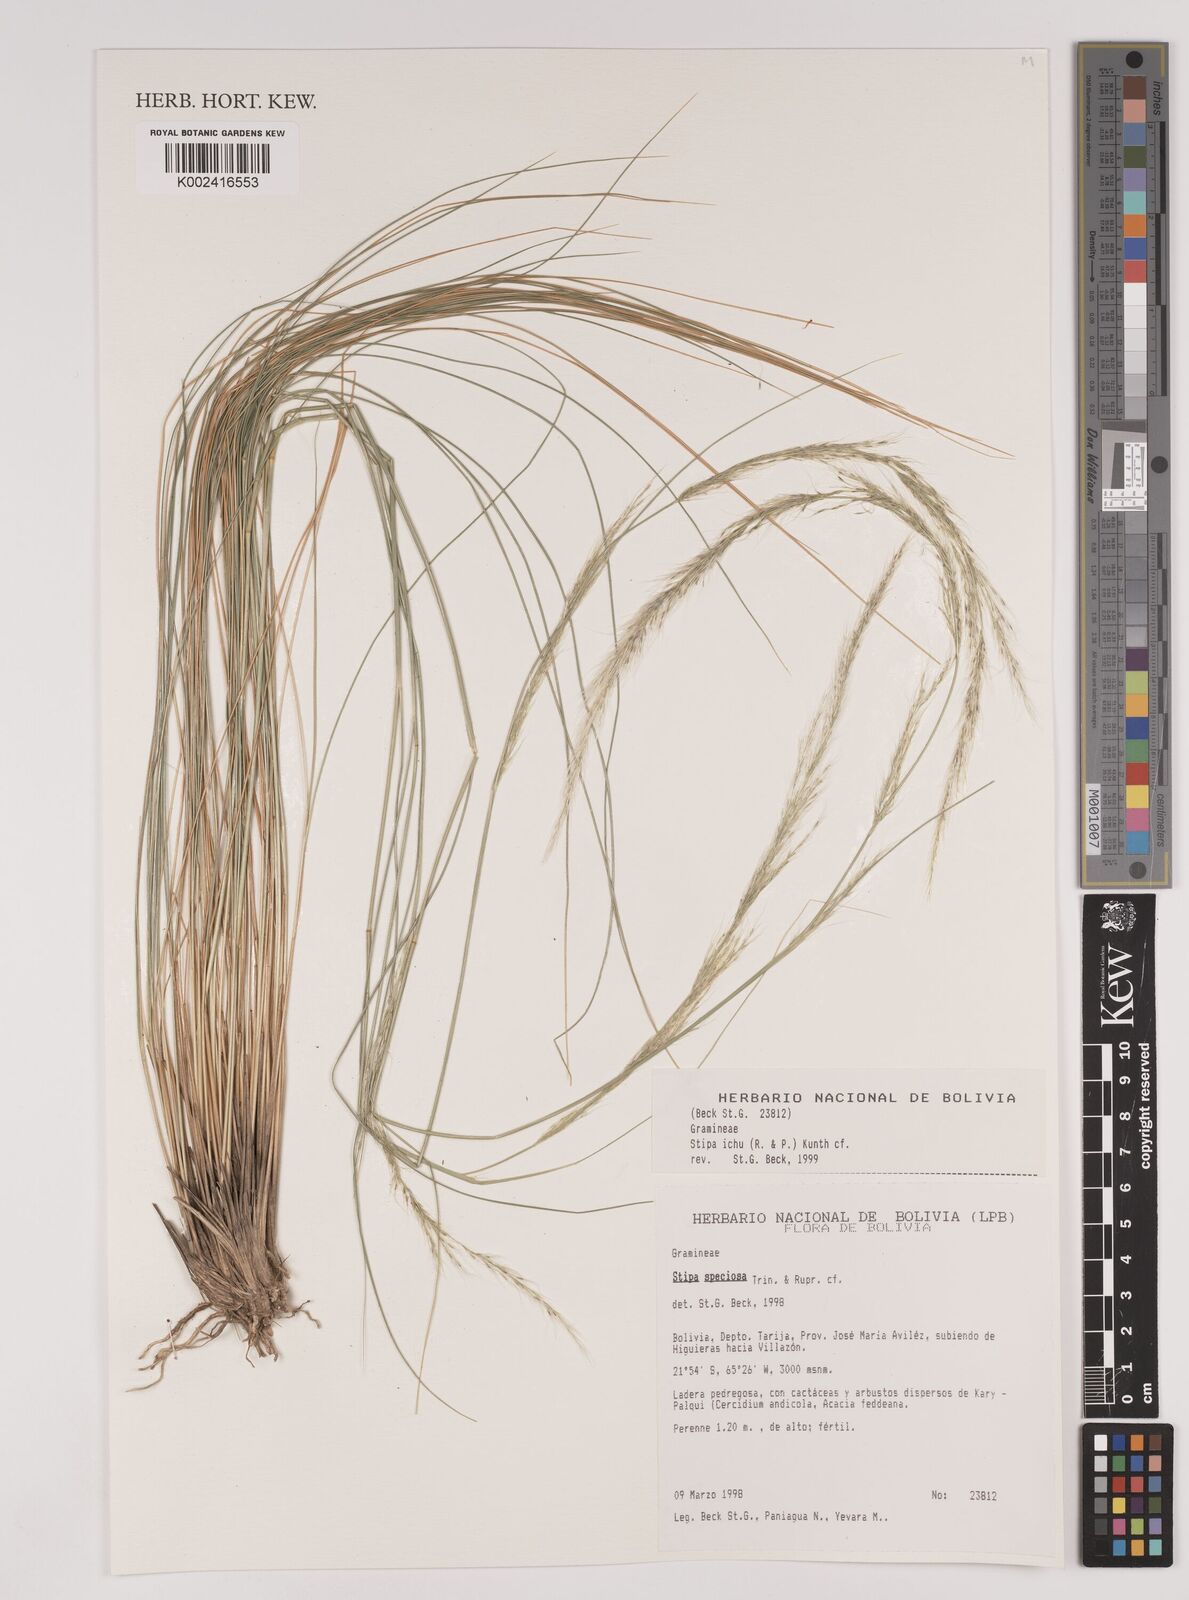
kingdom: Plantae
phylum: Tracheophyta
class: Liliopsida
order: Poales
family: Poaceae
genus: Jarava
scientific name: Jarava ichu
